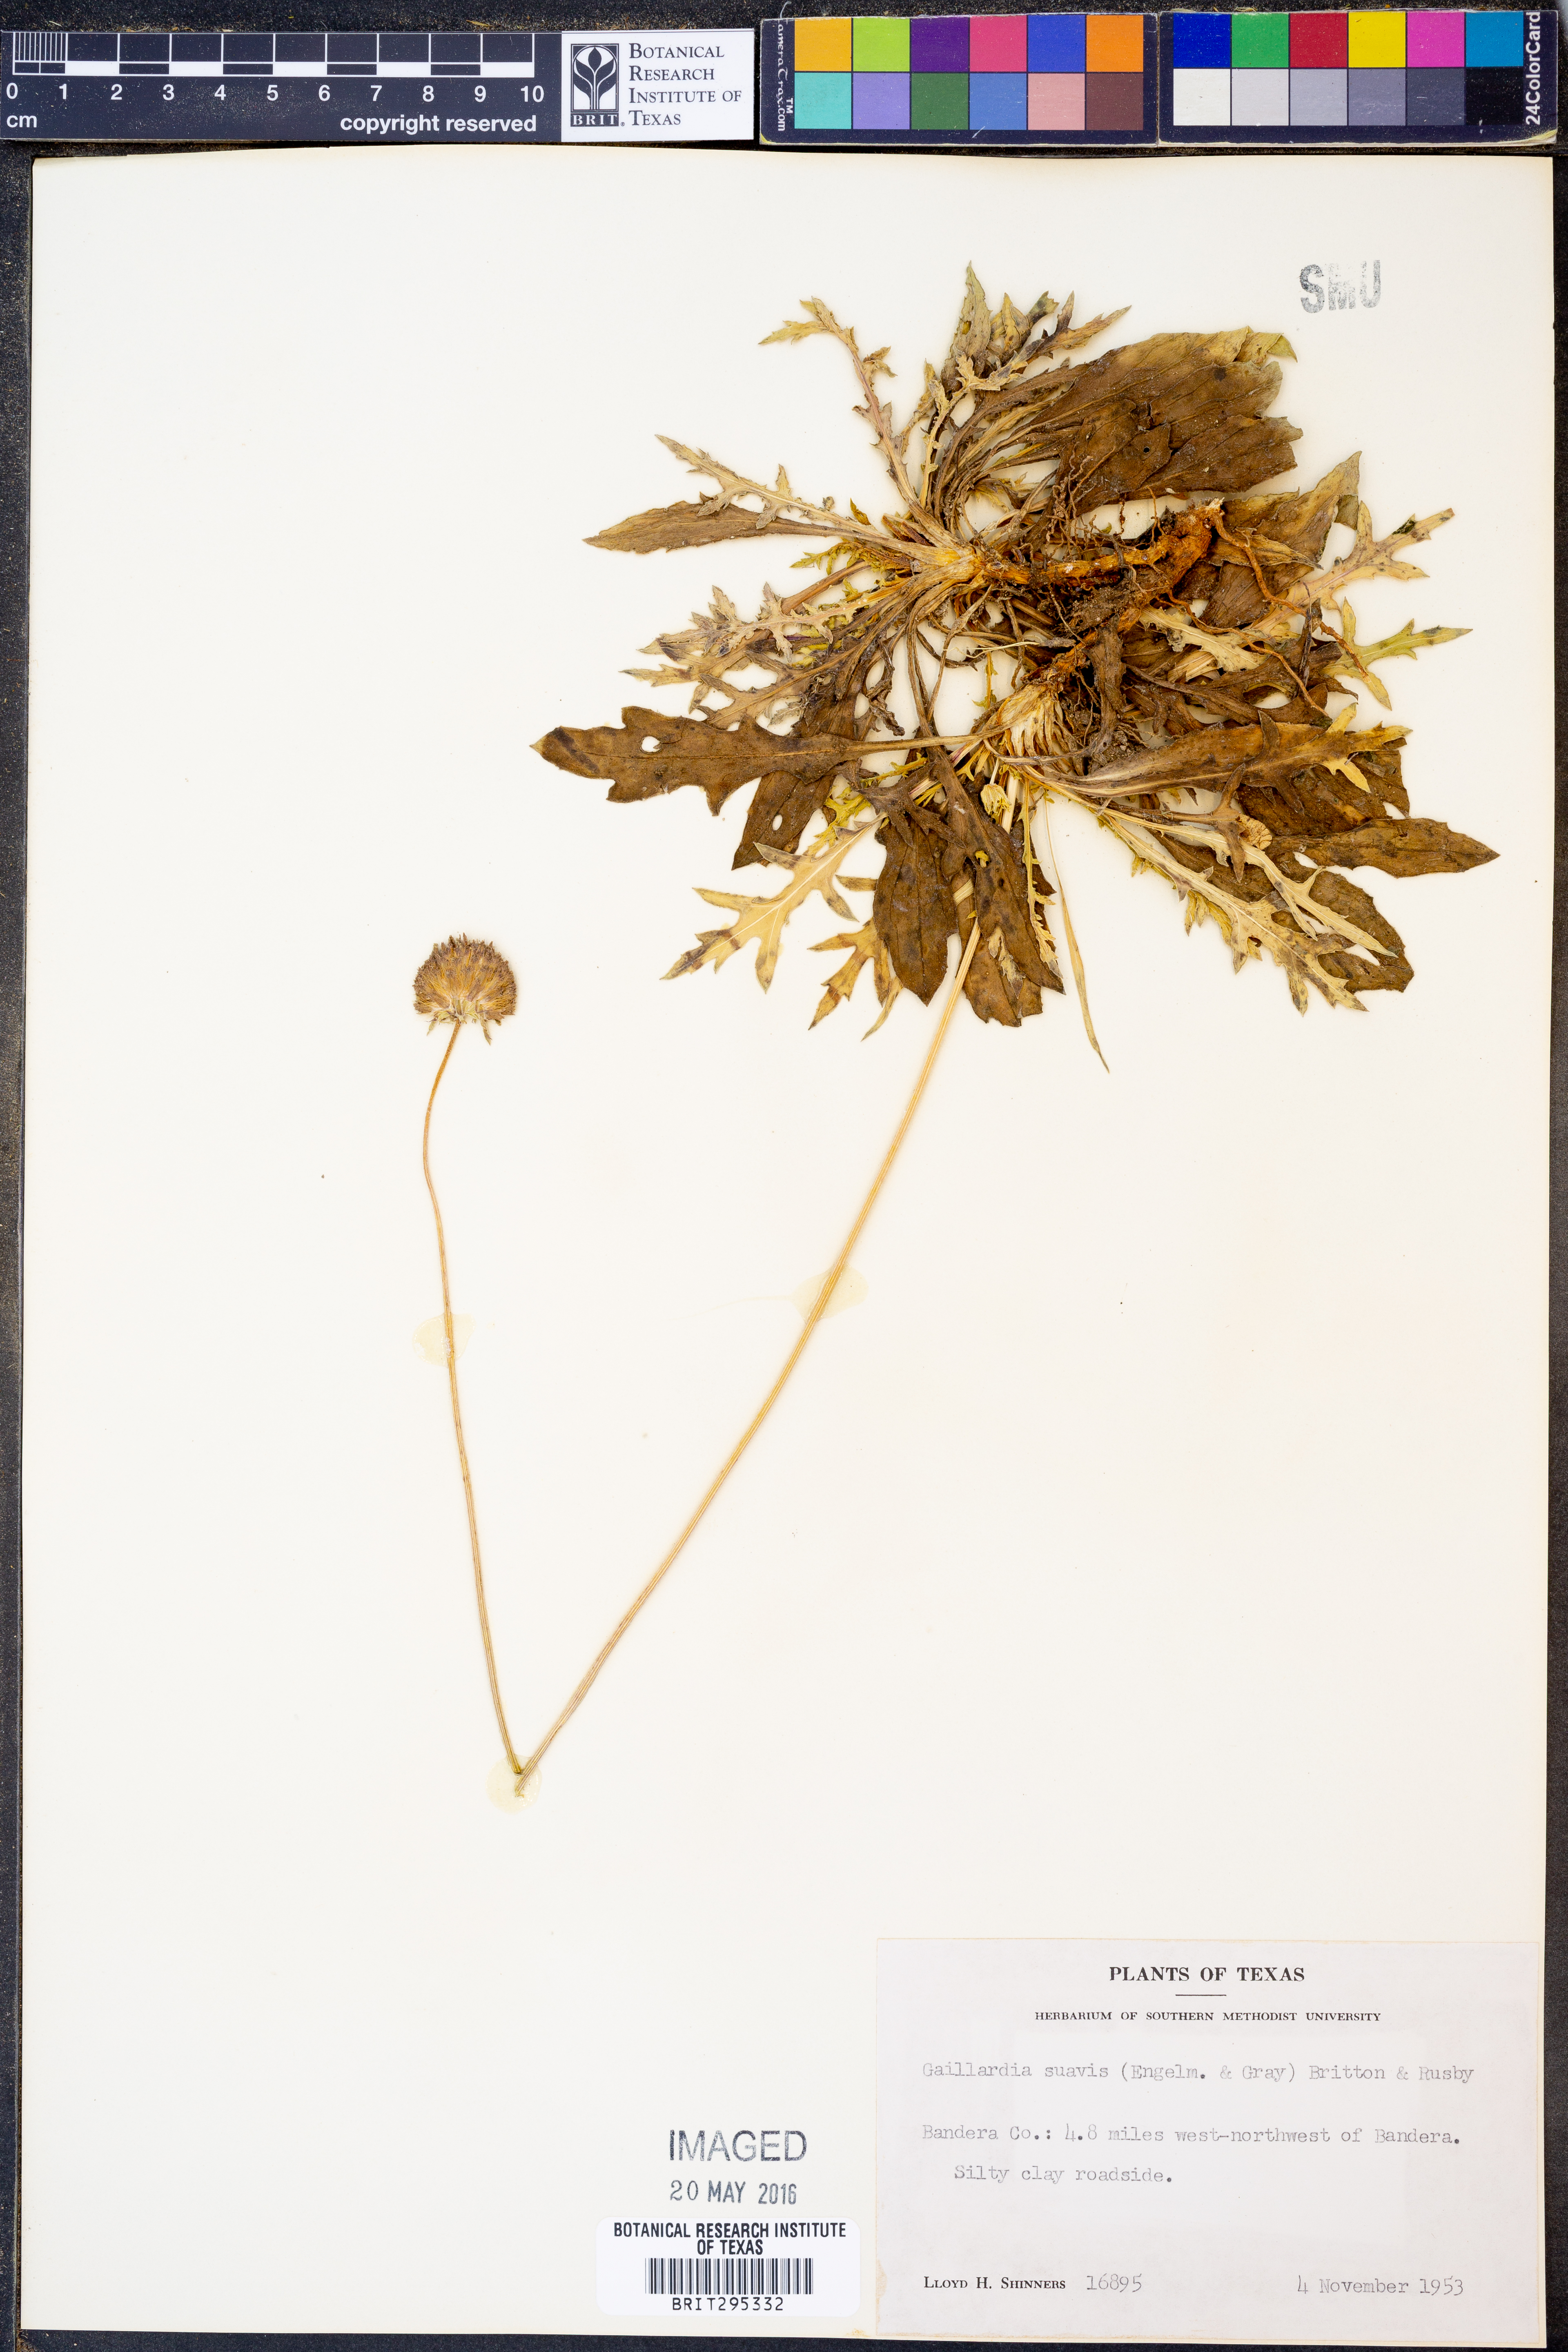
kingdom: Plantae
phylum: Tracheophyta
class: Magnoliopsida
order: Asterales
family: Asteraceae
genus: Gaillardia
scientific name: Gaillardia suavis
